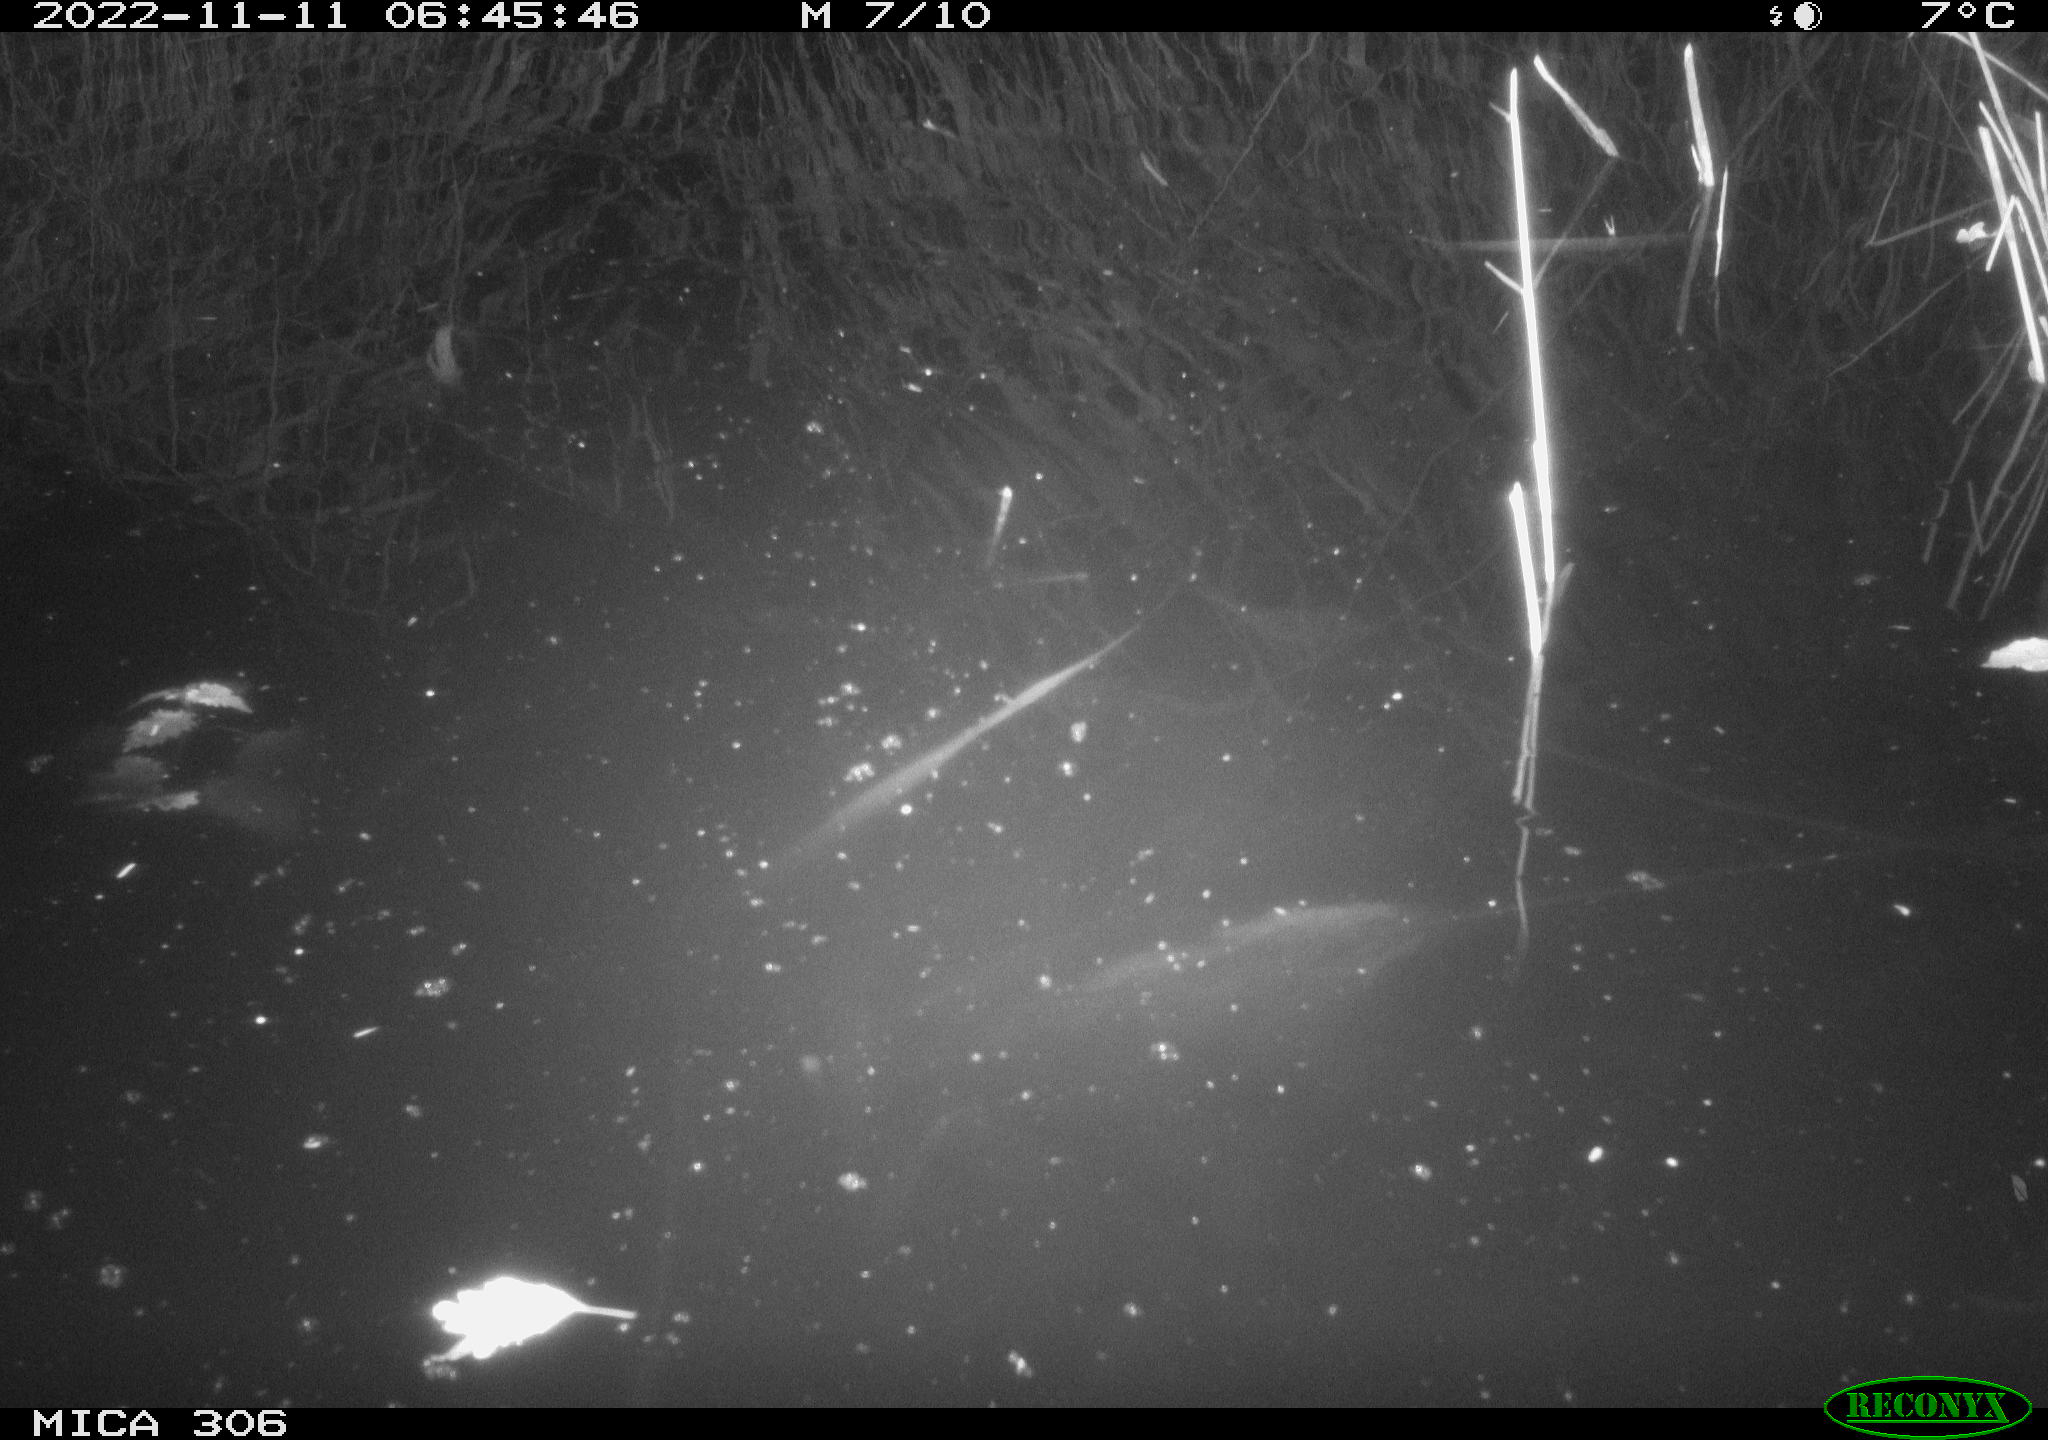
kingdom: Animalia
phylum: Chordata
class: Mammalia
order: Rodentia
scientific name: Rodentia
